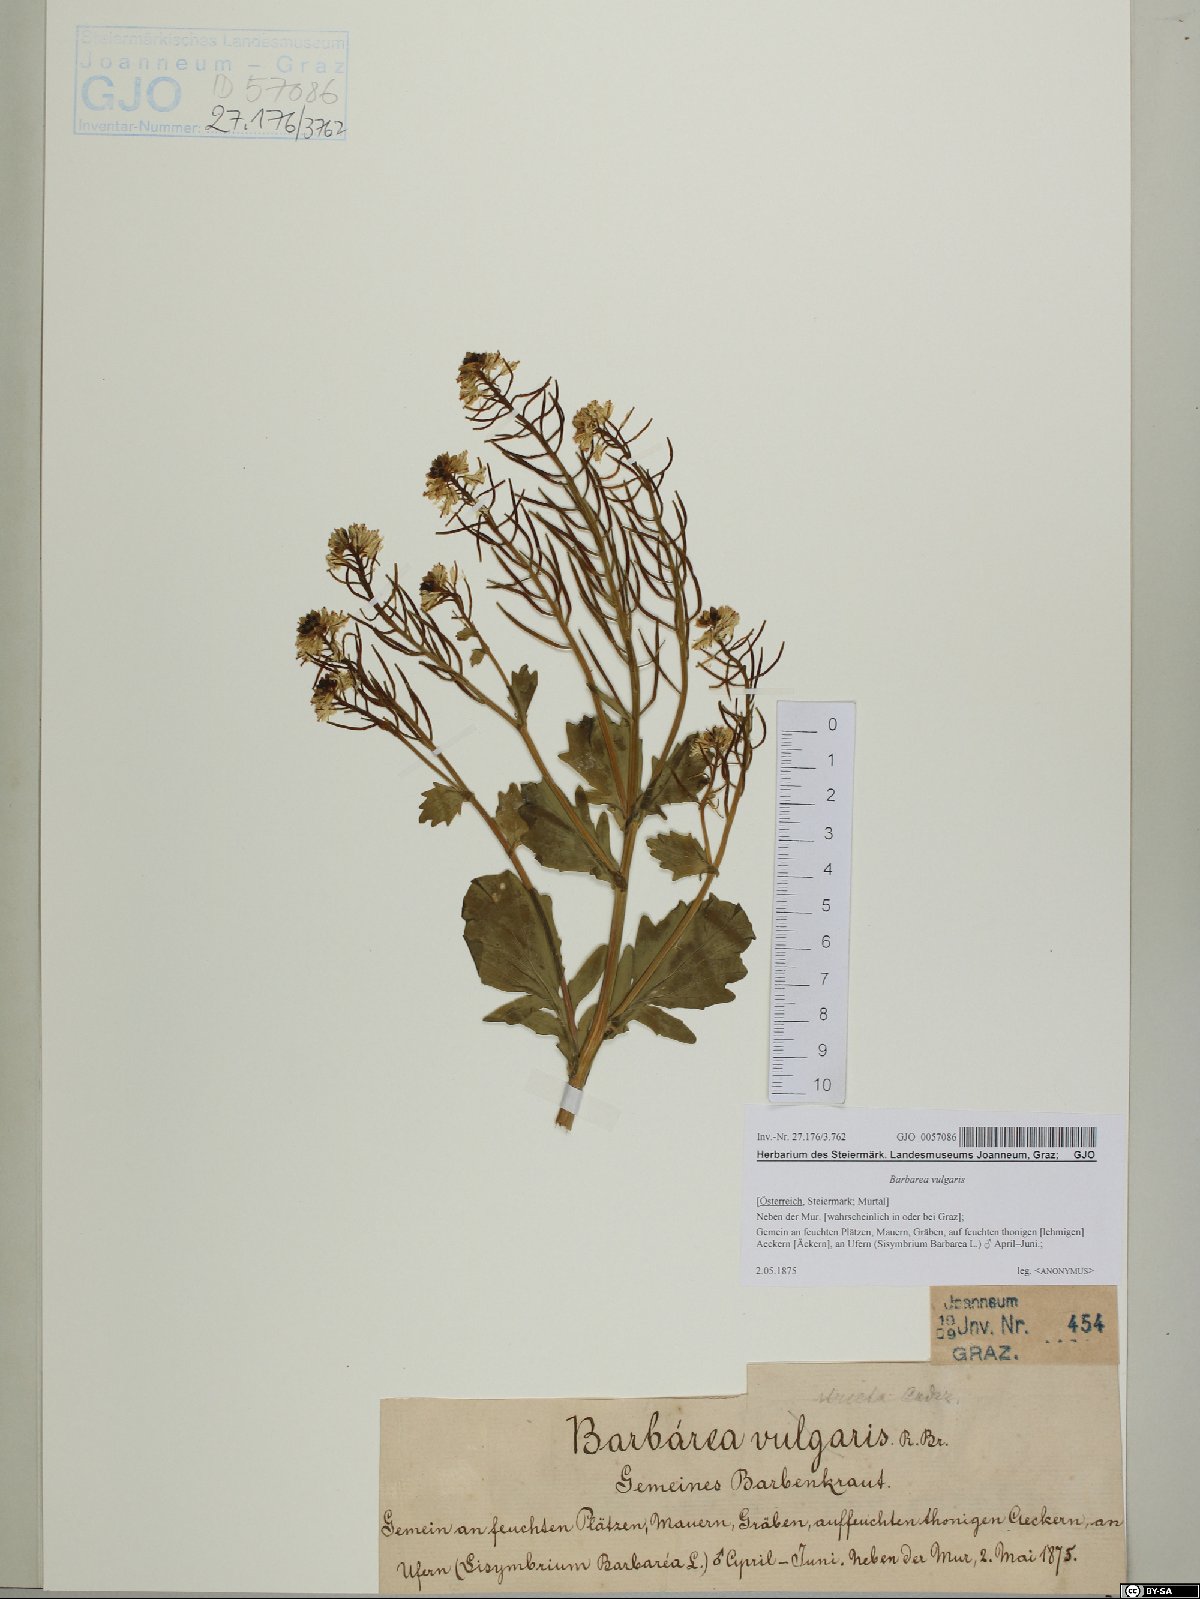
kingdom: Plantae
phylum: Tracheophyta
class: Magnoliopsida
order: Brassicales
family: Brassicaceae
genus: Barbarea
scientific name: Barbarea vulgaris
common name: Cressy-greens
